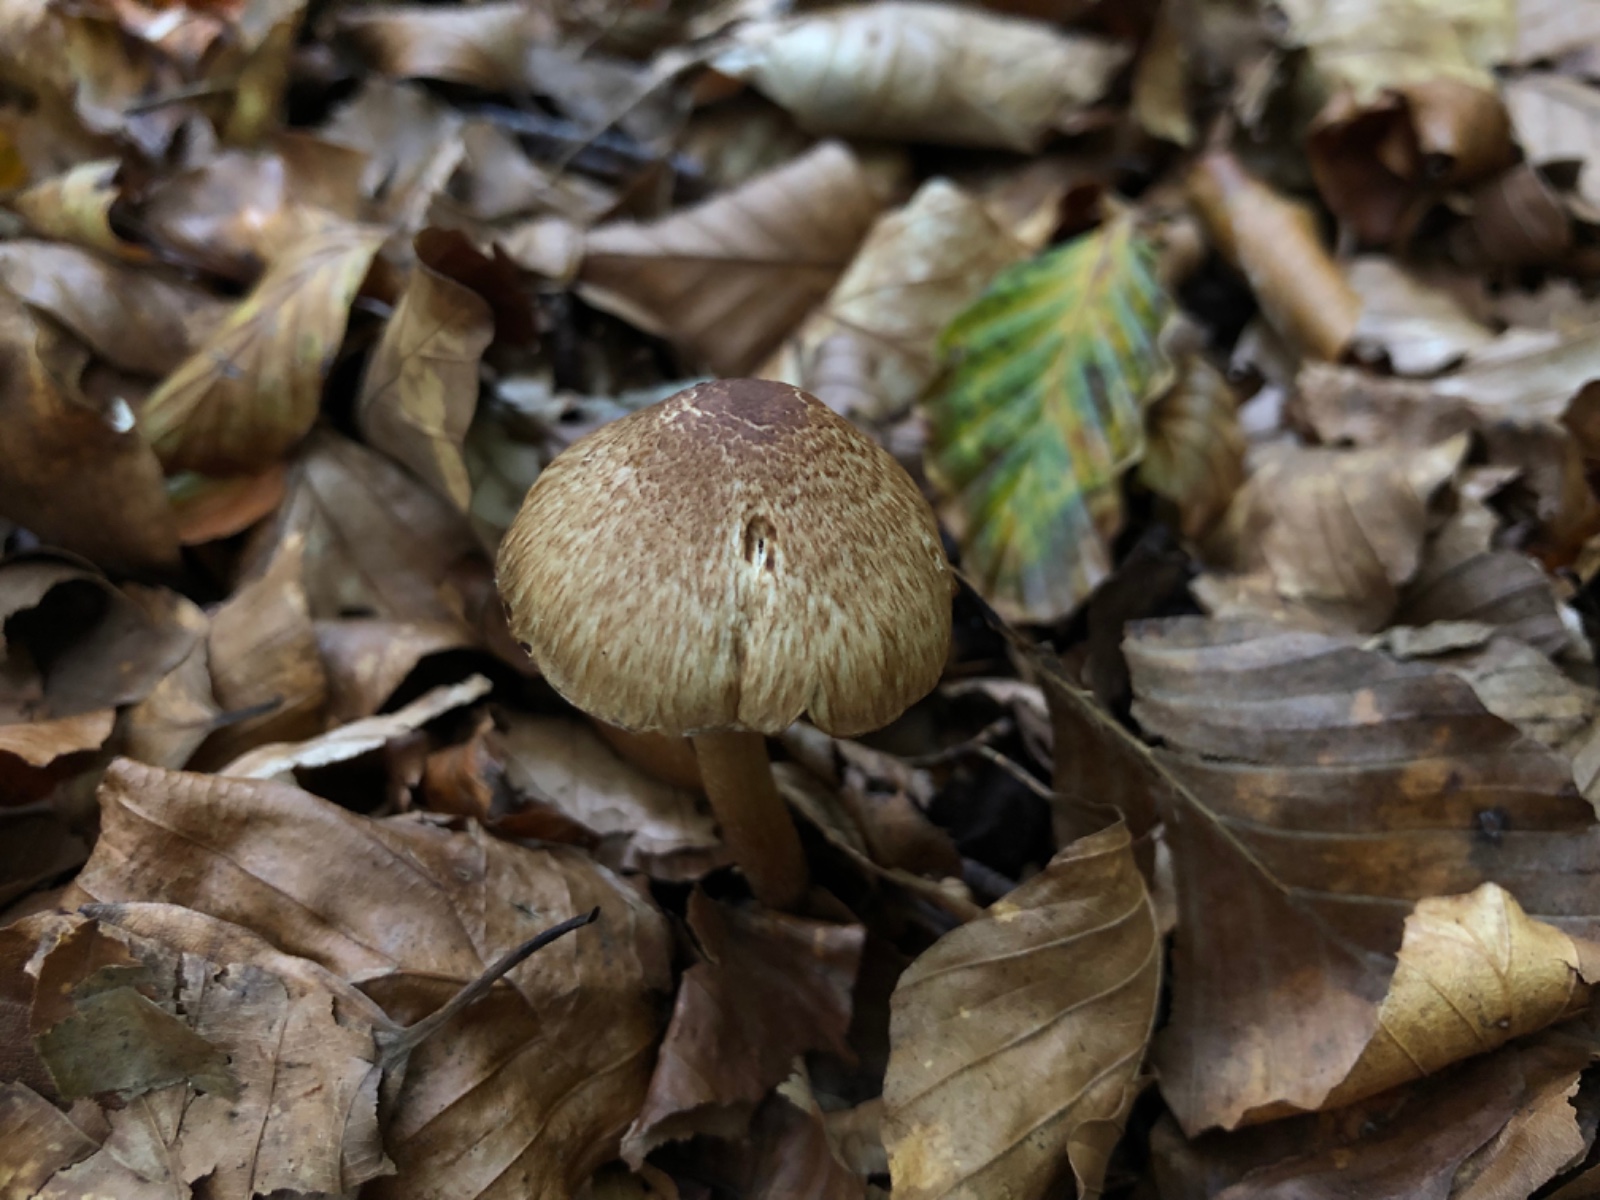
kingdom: Fungi
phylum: Basidiomycota
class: Agaricomycetes
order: Agaricales
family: Inocybaceae
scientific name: Inocybaceae
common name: trævlhatfamilien
